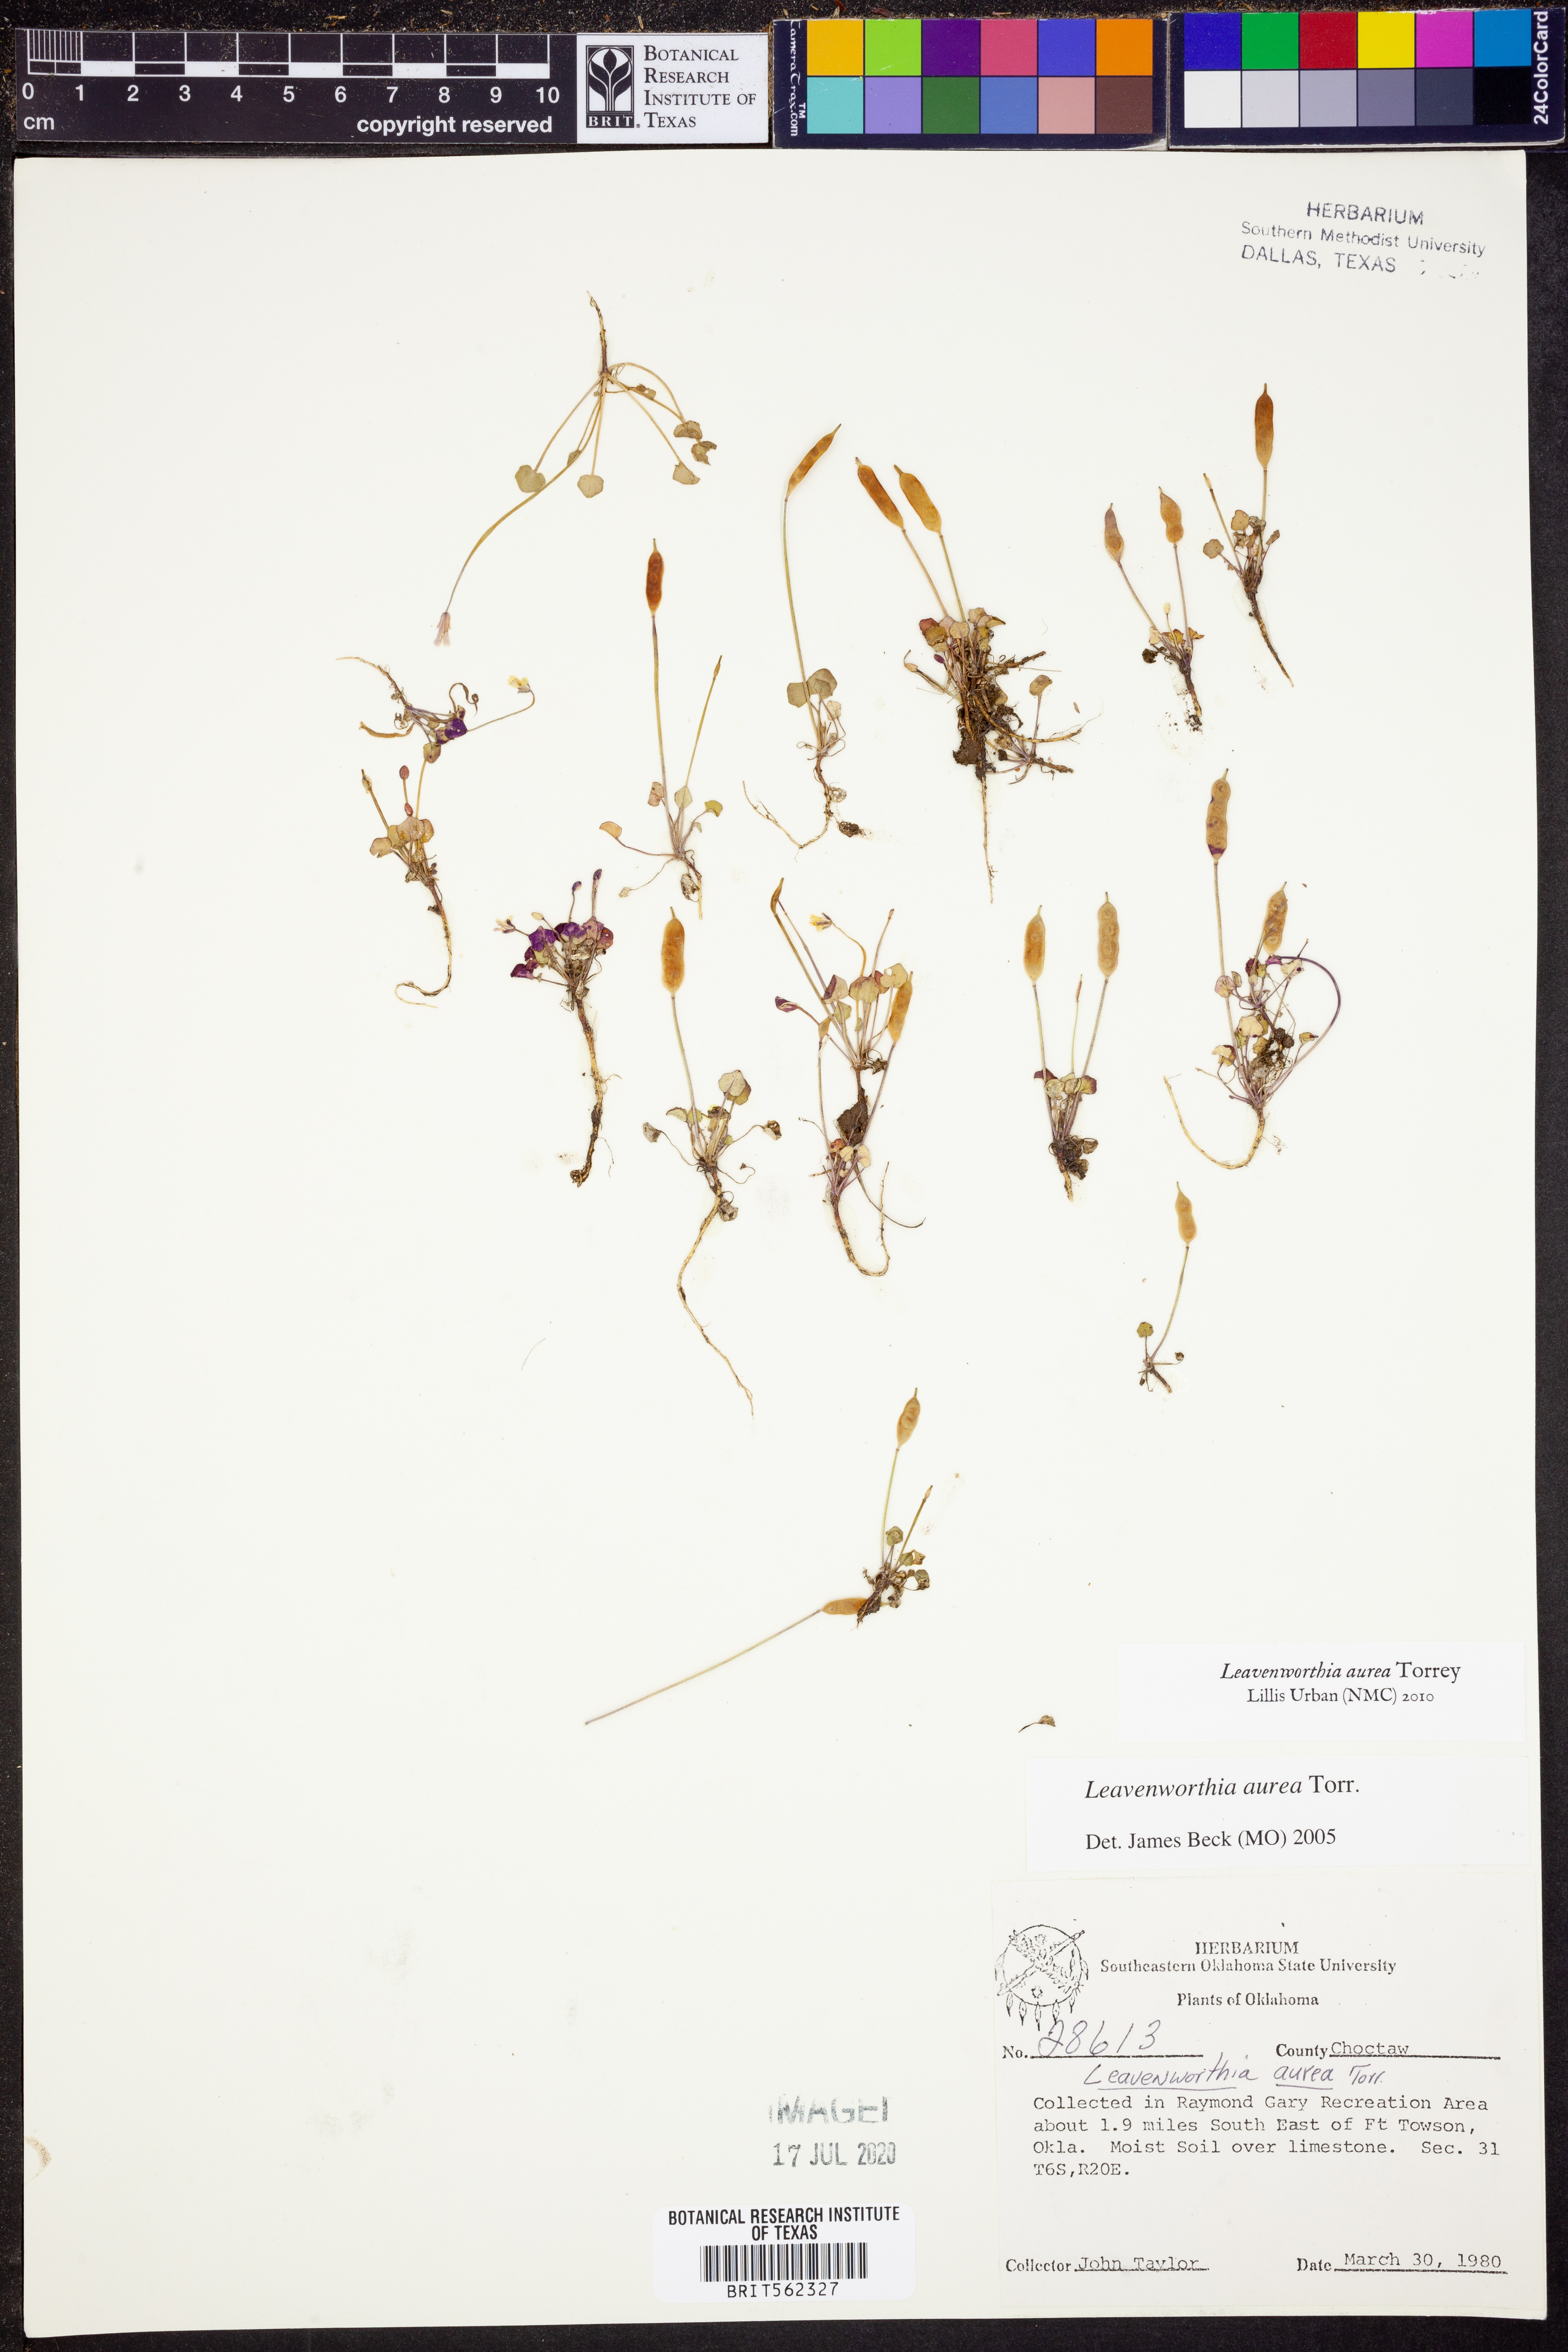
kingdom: Plantae
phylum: Tracheophyta
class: Magnoliopsida
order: Brassicales
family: Brassicaceae
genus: Leavenworthia
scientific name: Leavenworthia aurea
